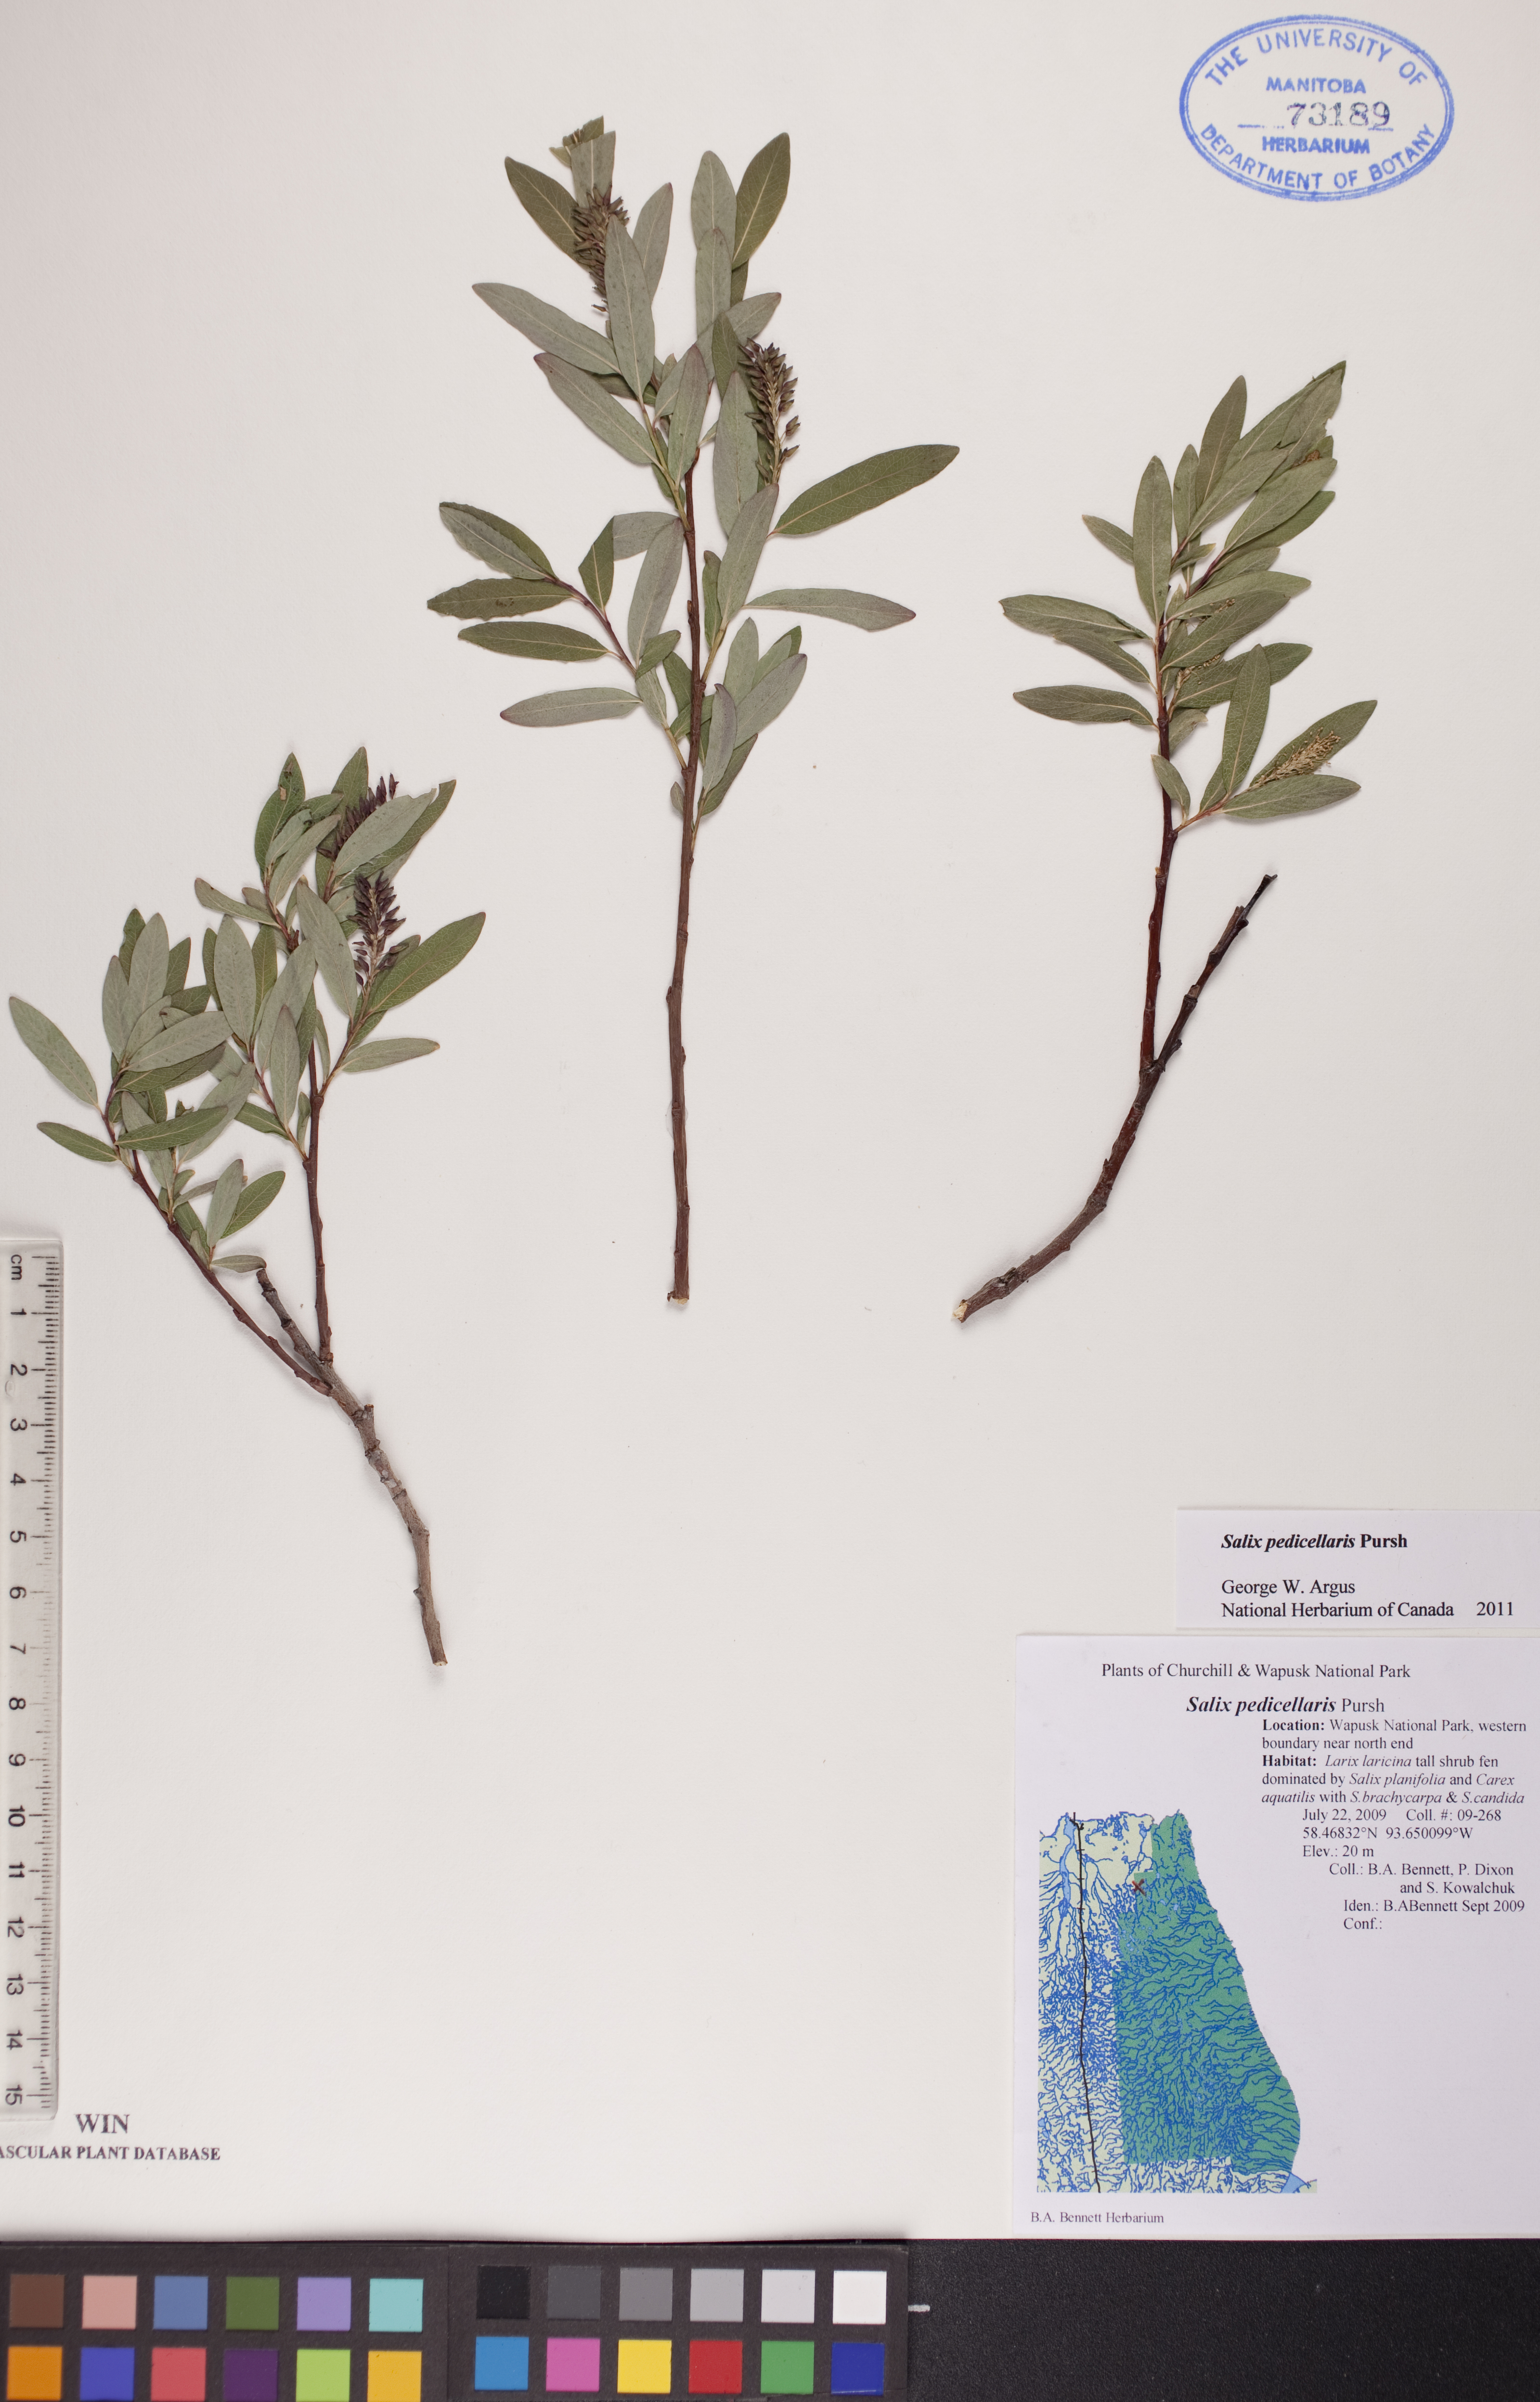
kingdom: Plantae
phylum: Tracheophyta
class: Magnoliopsida
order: Malpighiales
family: Salicaceae
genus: Salix
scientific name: Salix pedicellaris
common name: Bog willow
